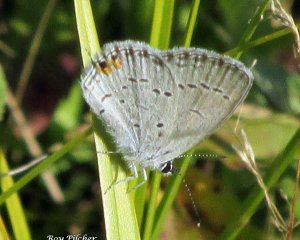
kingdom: Animalia
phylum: Arthropoda
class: Insecta
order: Lepidoptera
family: Lycaenidae
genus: Elkalyce
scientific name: Elkalyce comyntas
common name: Eastern Tailed-Blue
